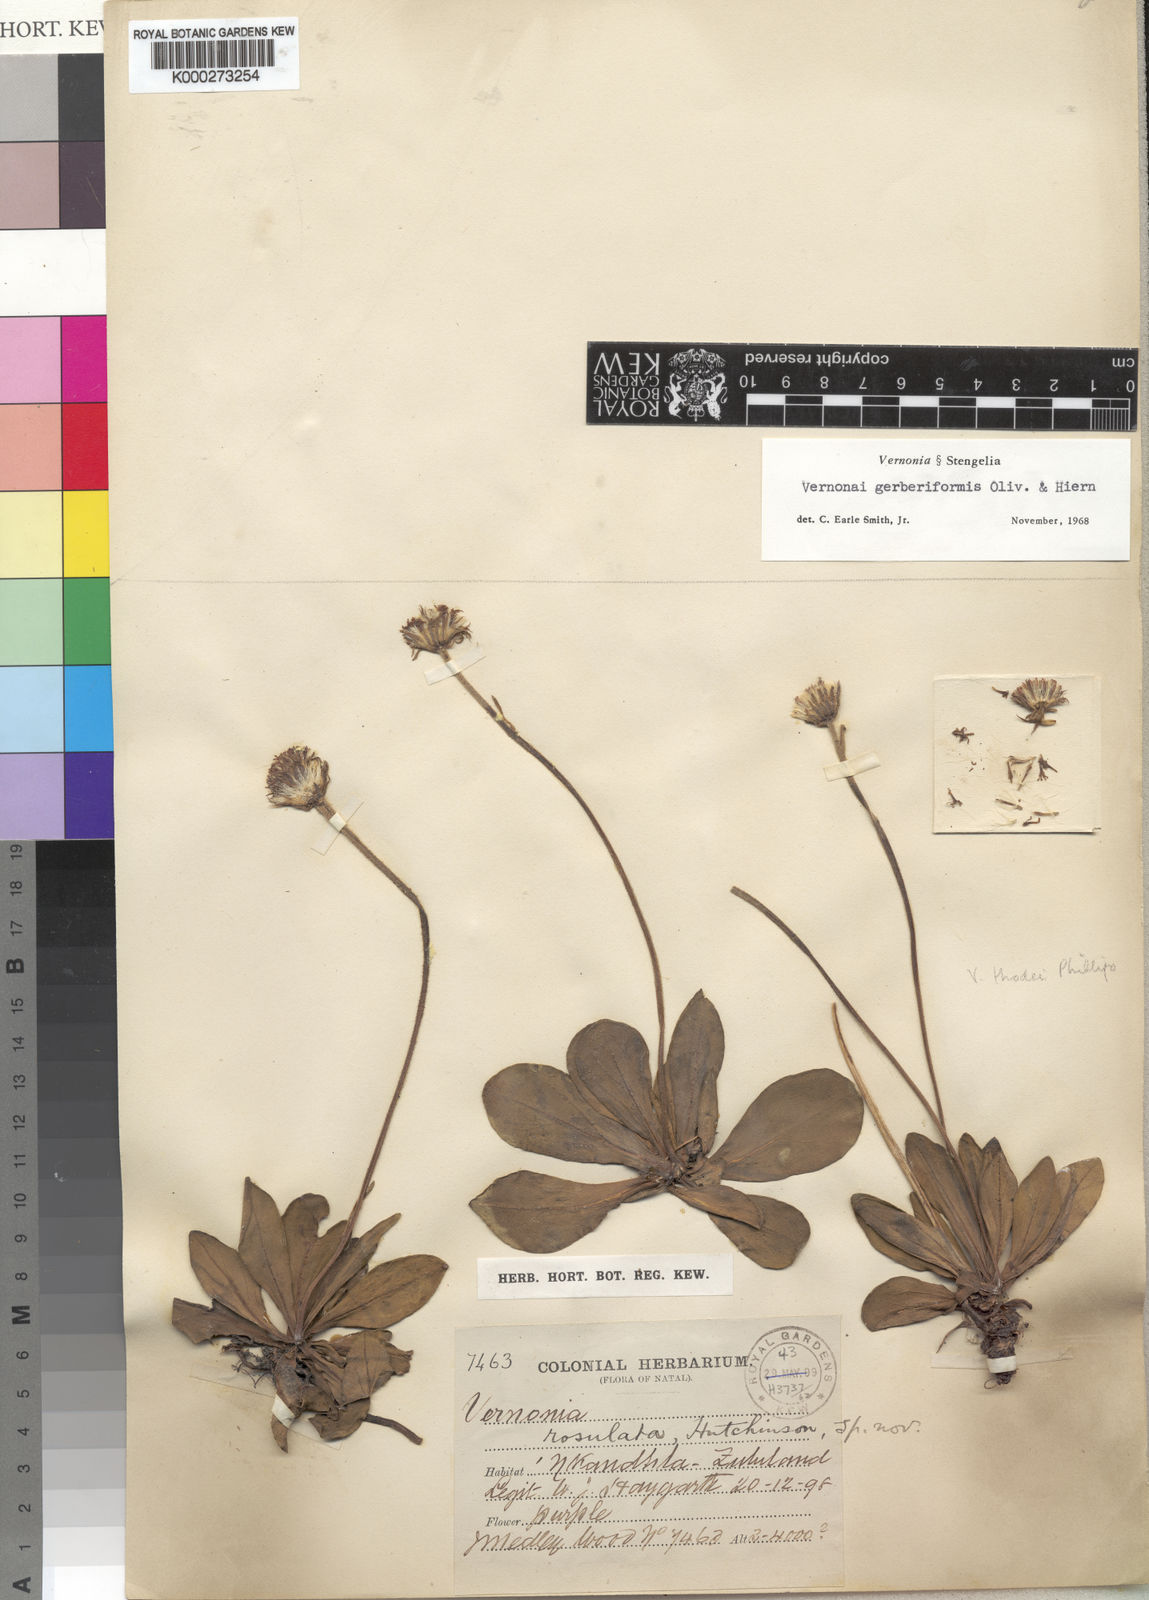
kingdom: Plantae
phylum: Tracheophyta
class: Magnoliopsida
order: Asterales
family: Asteraceae
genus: Linzia
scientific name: Linzia gerberiformis
